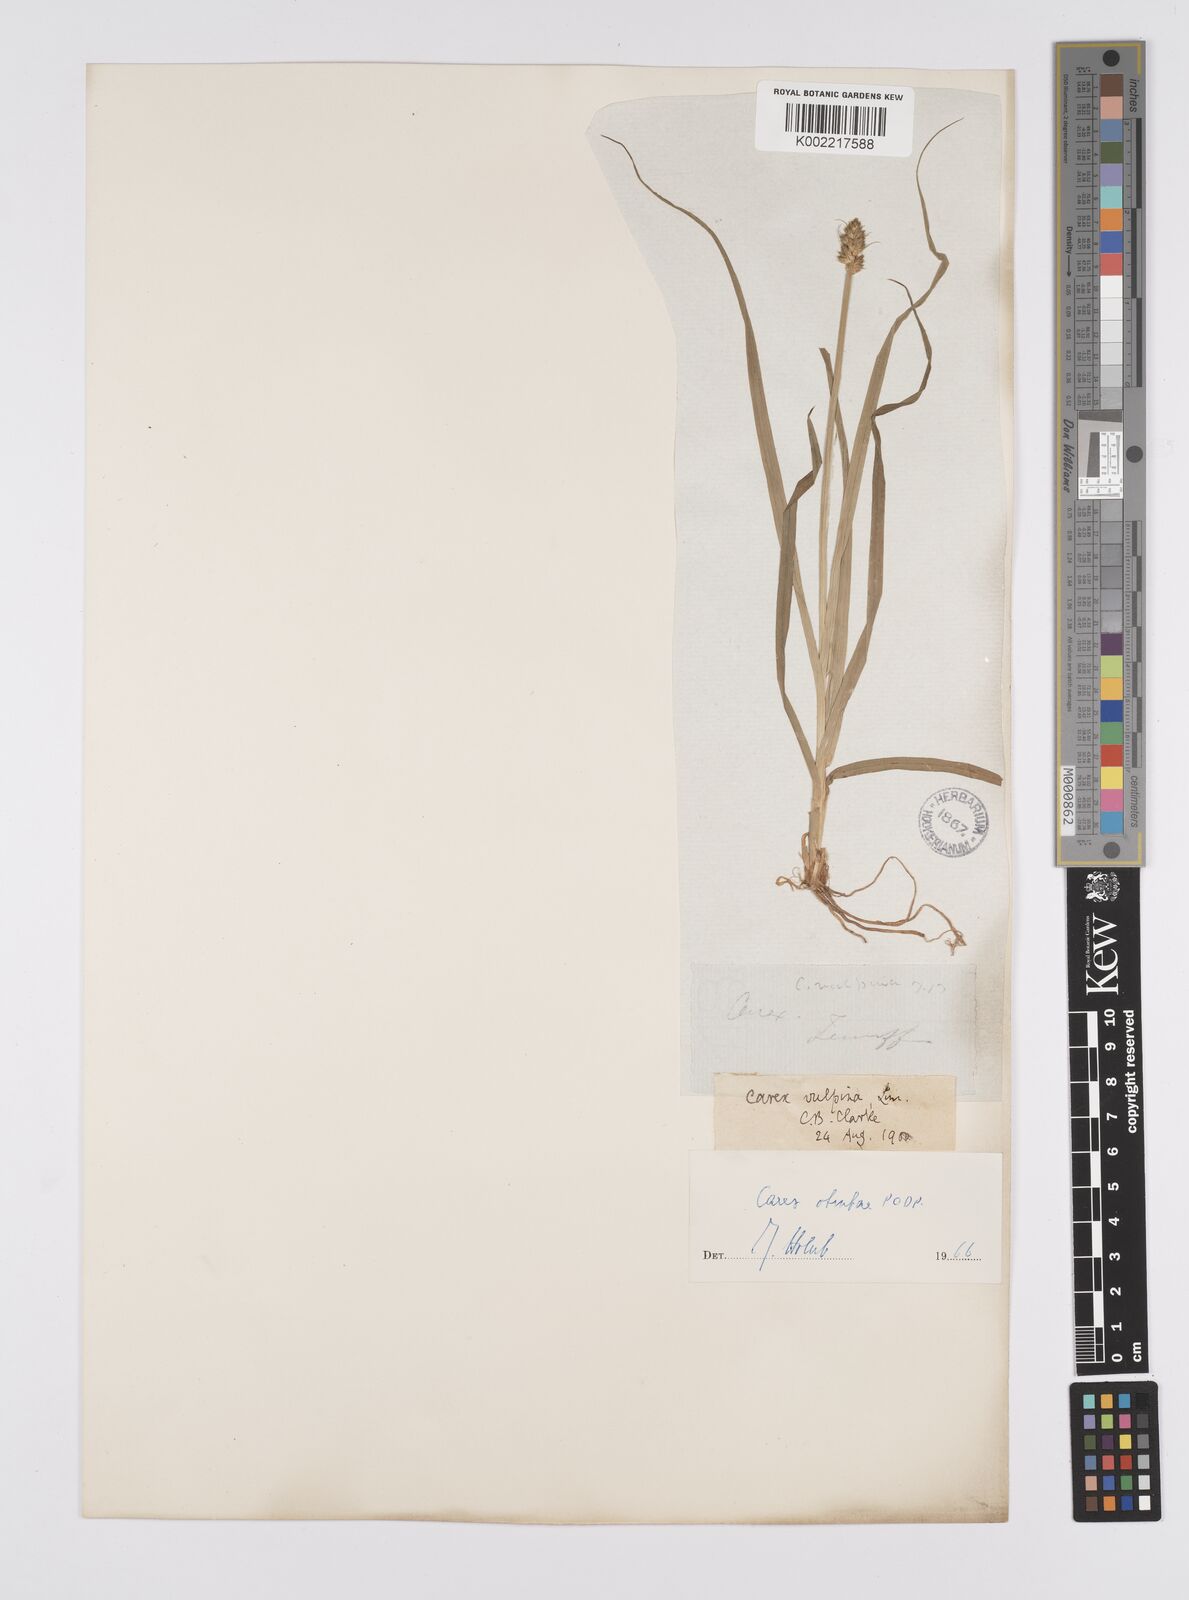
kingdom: Plantae
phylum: Tracheophyta
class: Liliopsida
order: Poales
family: Cyperaceae
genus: Carex
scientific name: Carex vulpina
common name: True fox-sedge
